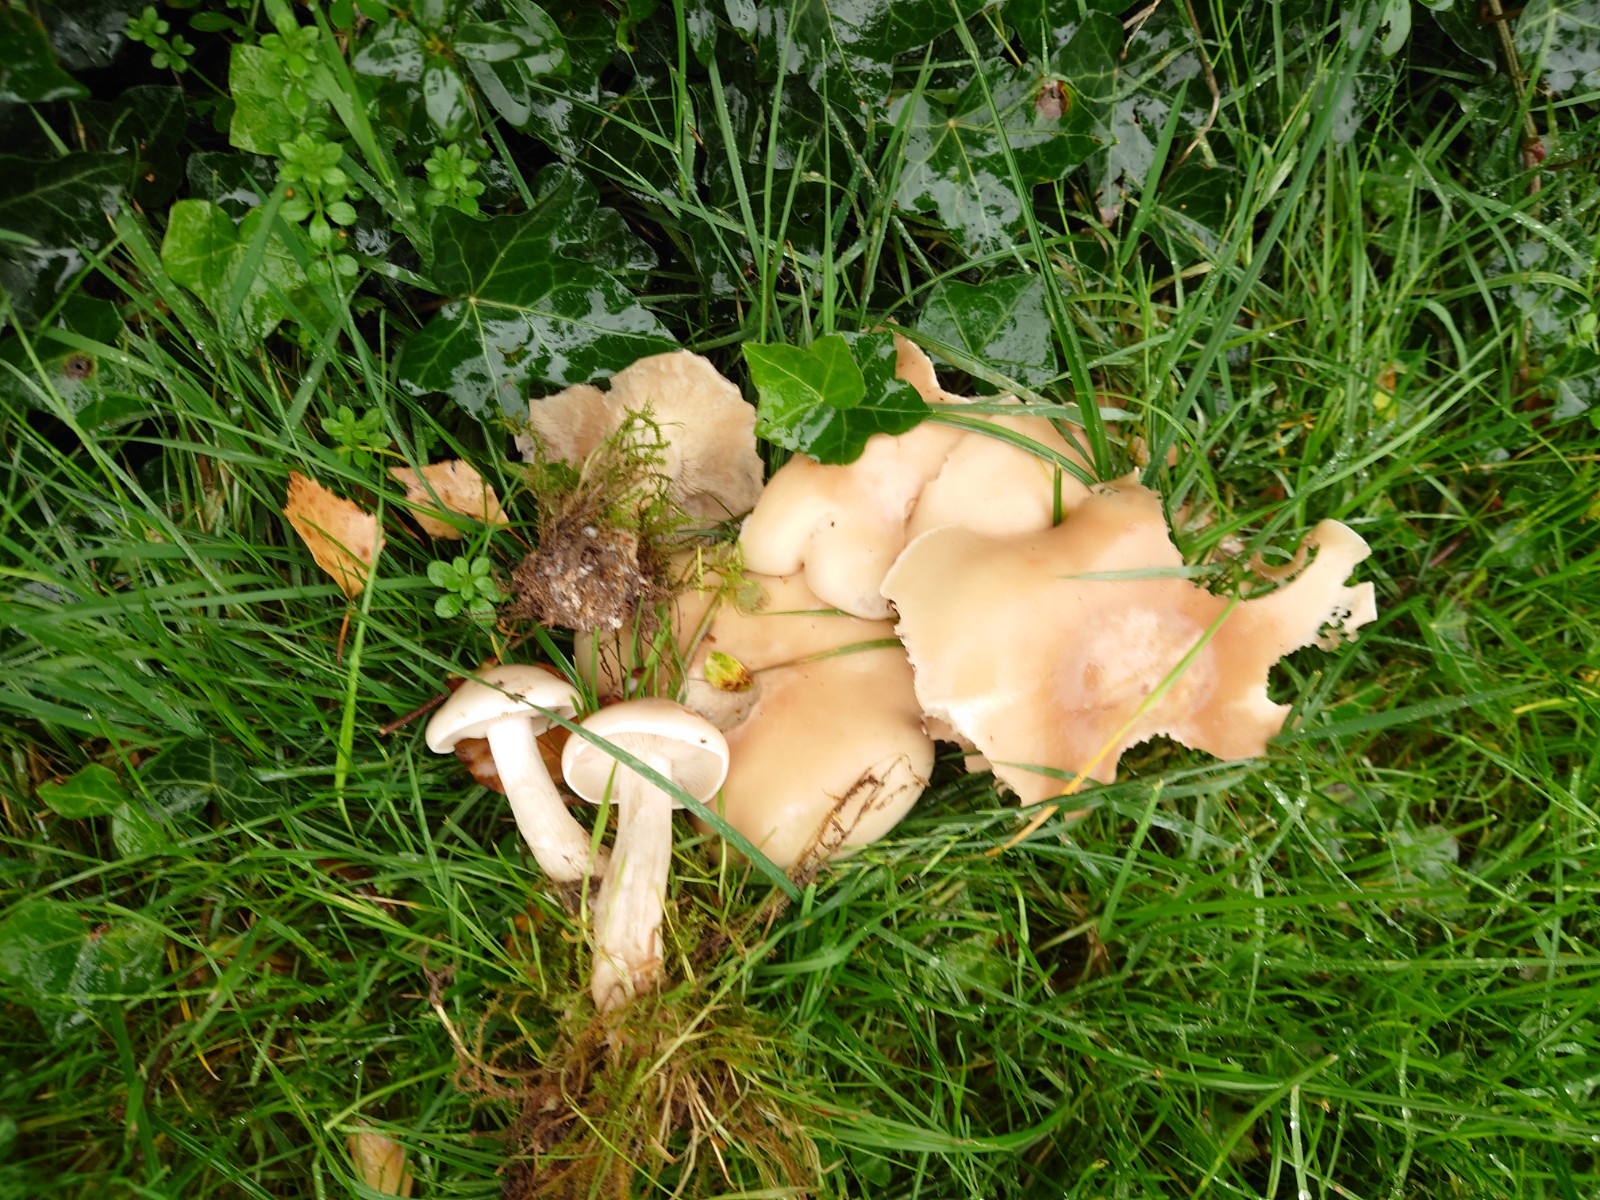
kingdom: Fungi
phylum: Basidiomycota
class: Agaricomycetes
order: Agaricales
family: Tricholomataceae
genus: Lepista
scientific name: Lepista irina
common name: violduftende hekseringshat
